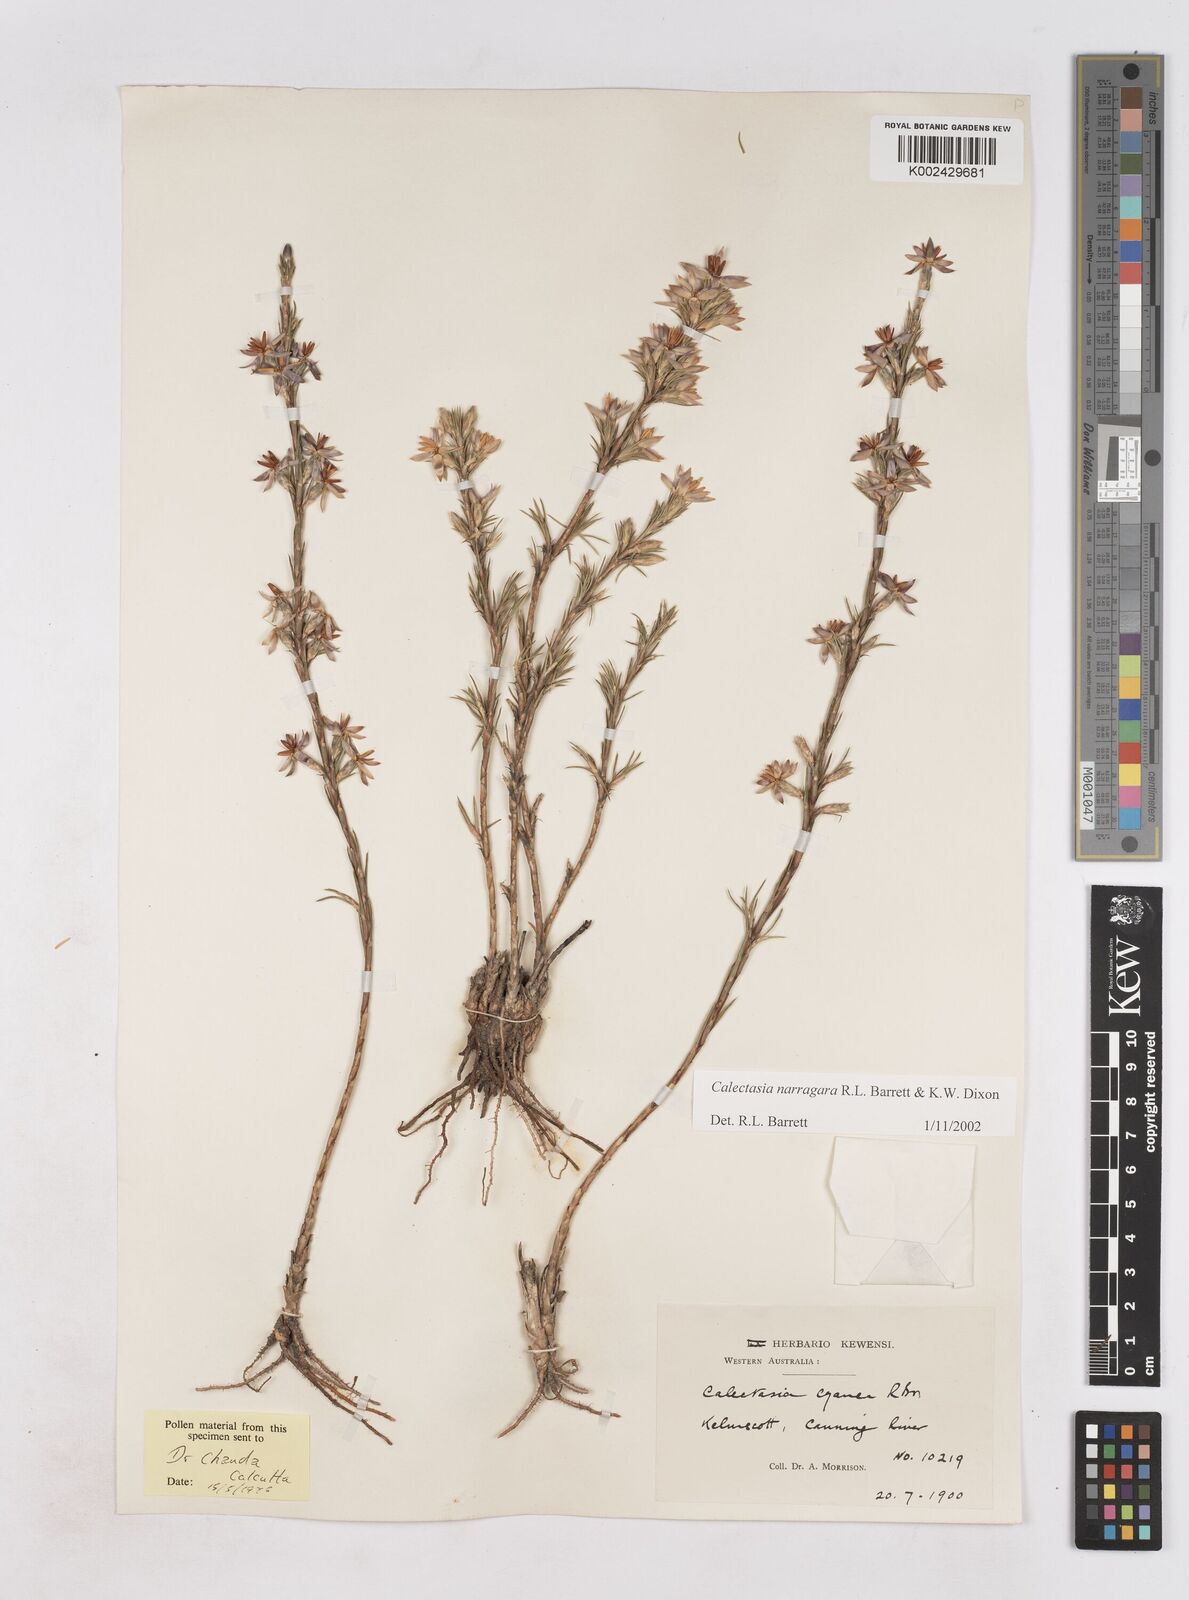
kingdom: Plantae
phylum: Tracheophyta
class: Liliopsida
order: Arecales
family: Dasypogonaceae
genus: Calectasia
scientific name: Calectasia narragara
